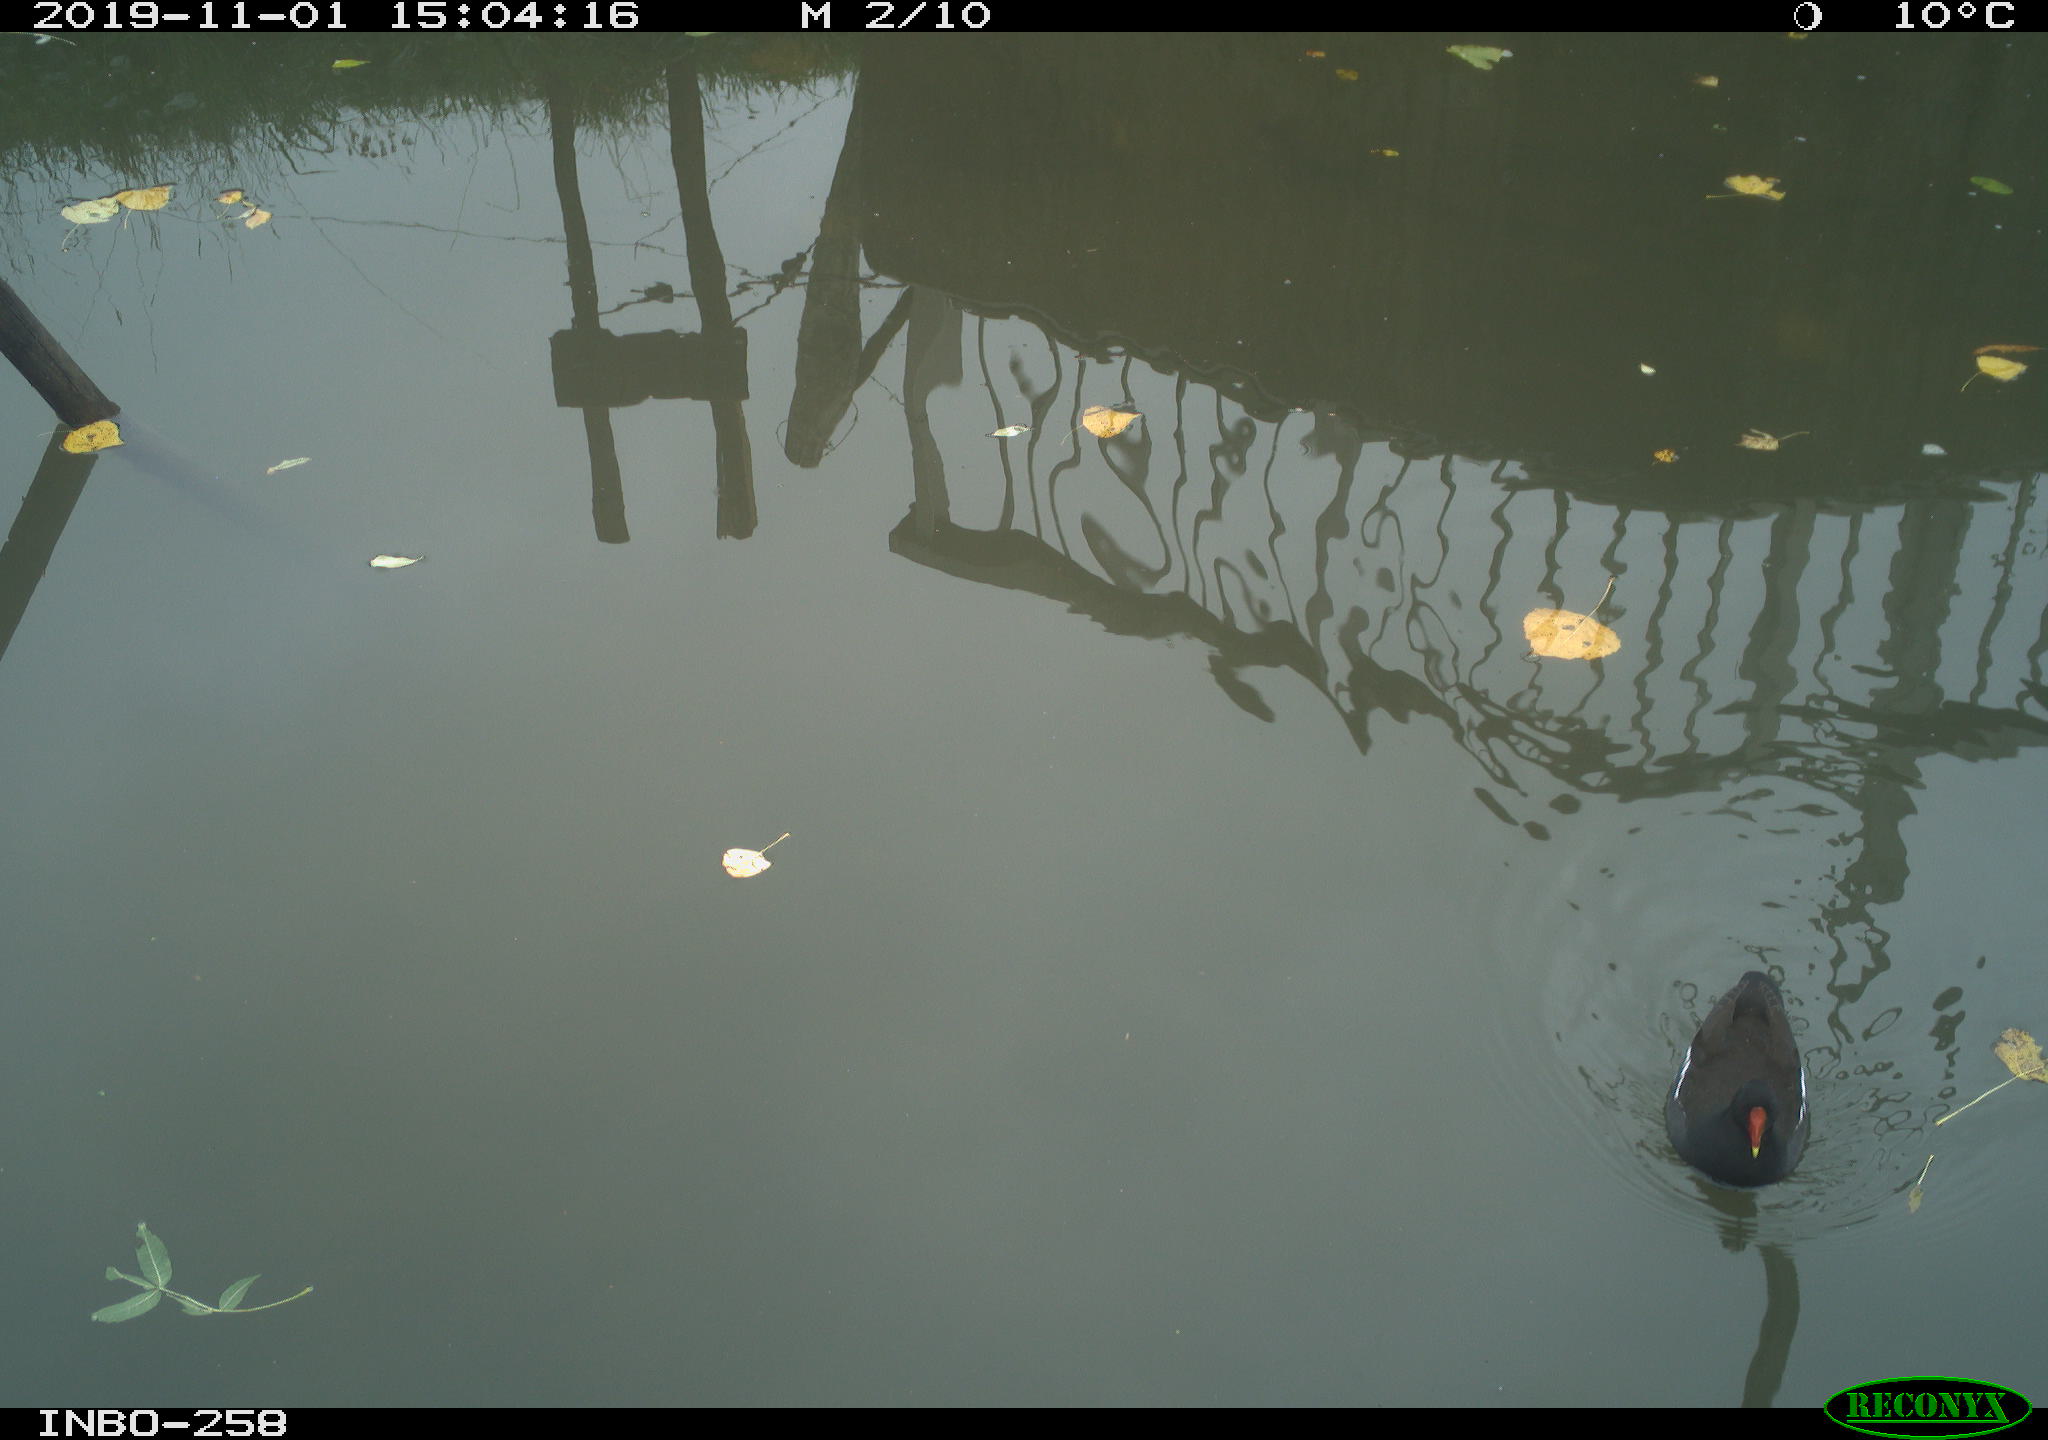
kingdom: Animalia
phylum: Chordata
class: Aves
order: Gruiformes
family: Rallidae
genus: Gallinula
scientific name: Gallinula chloropus
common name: Common moorhen
